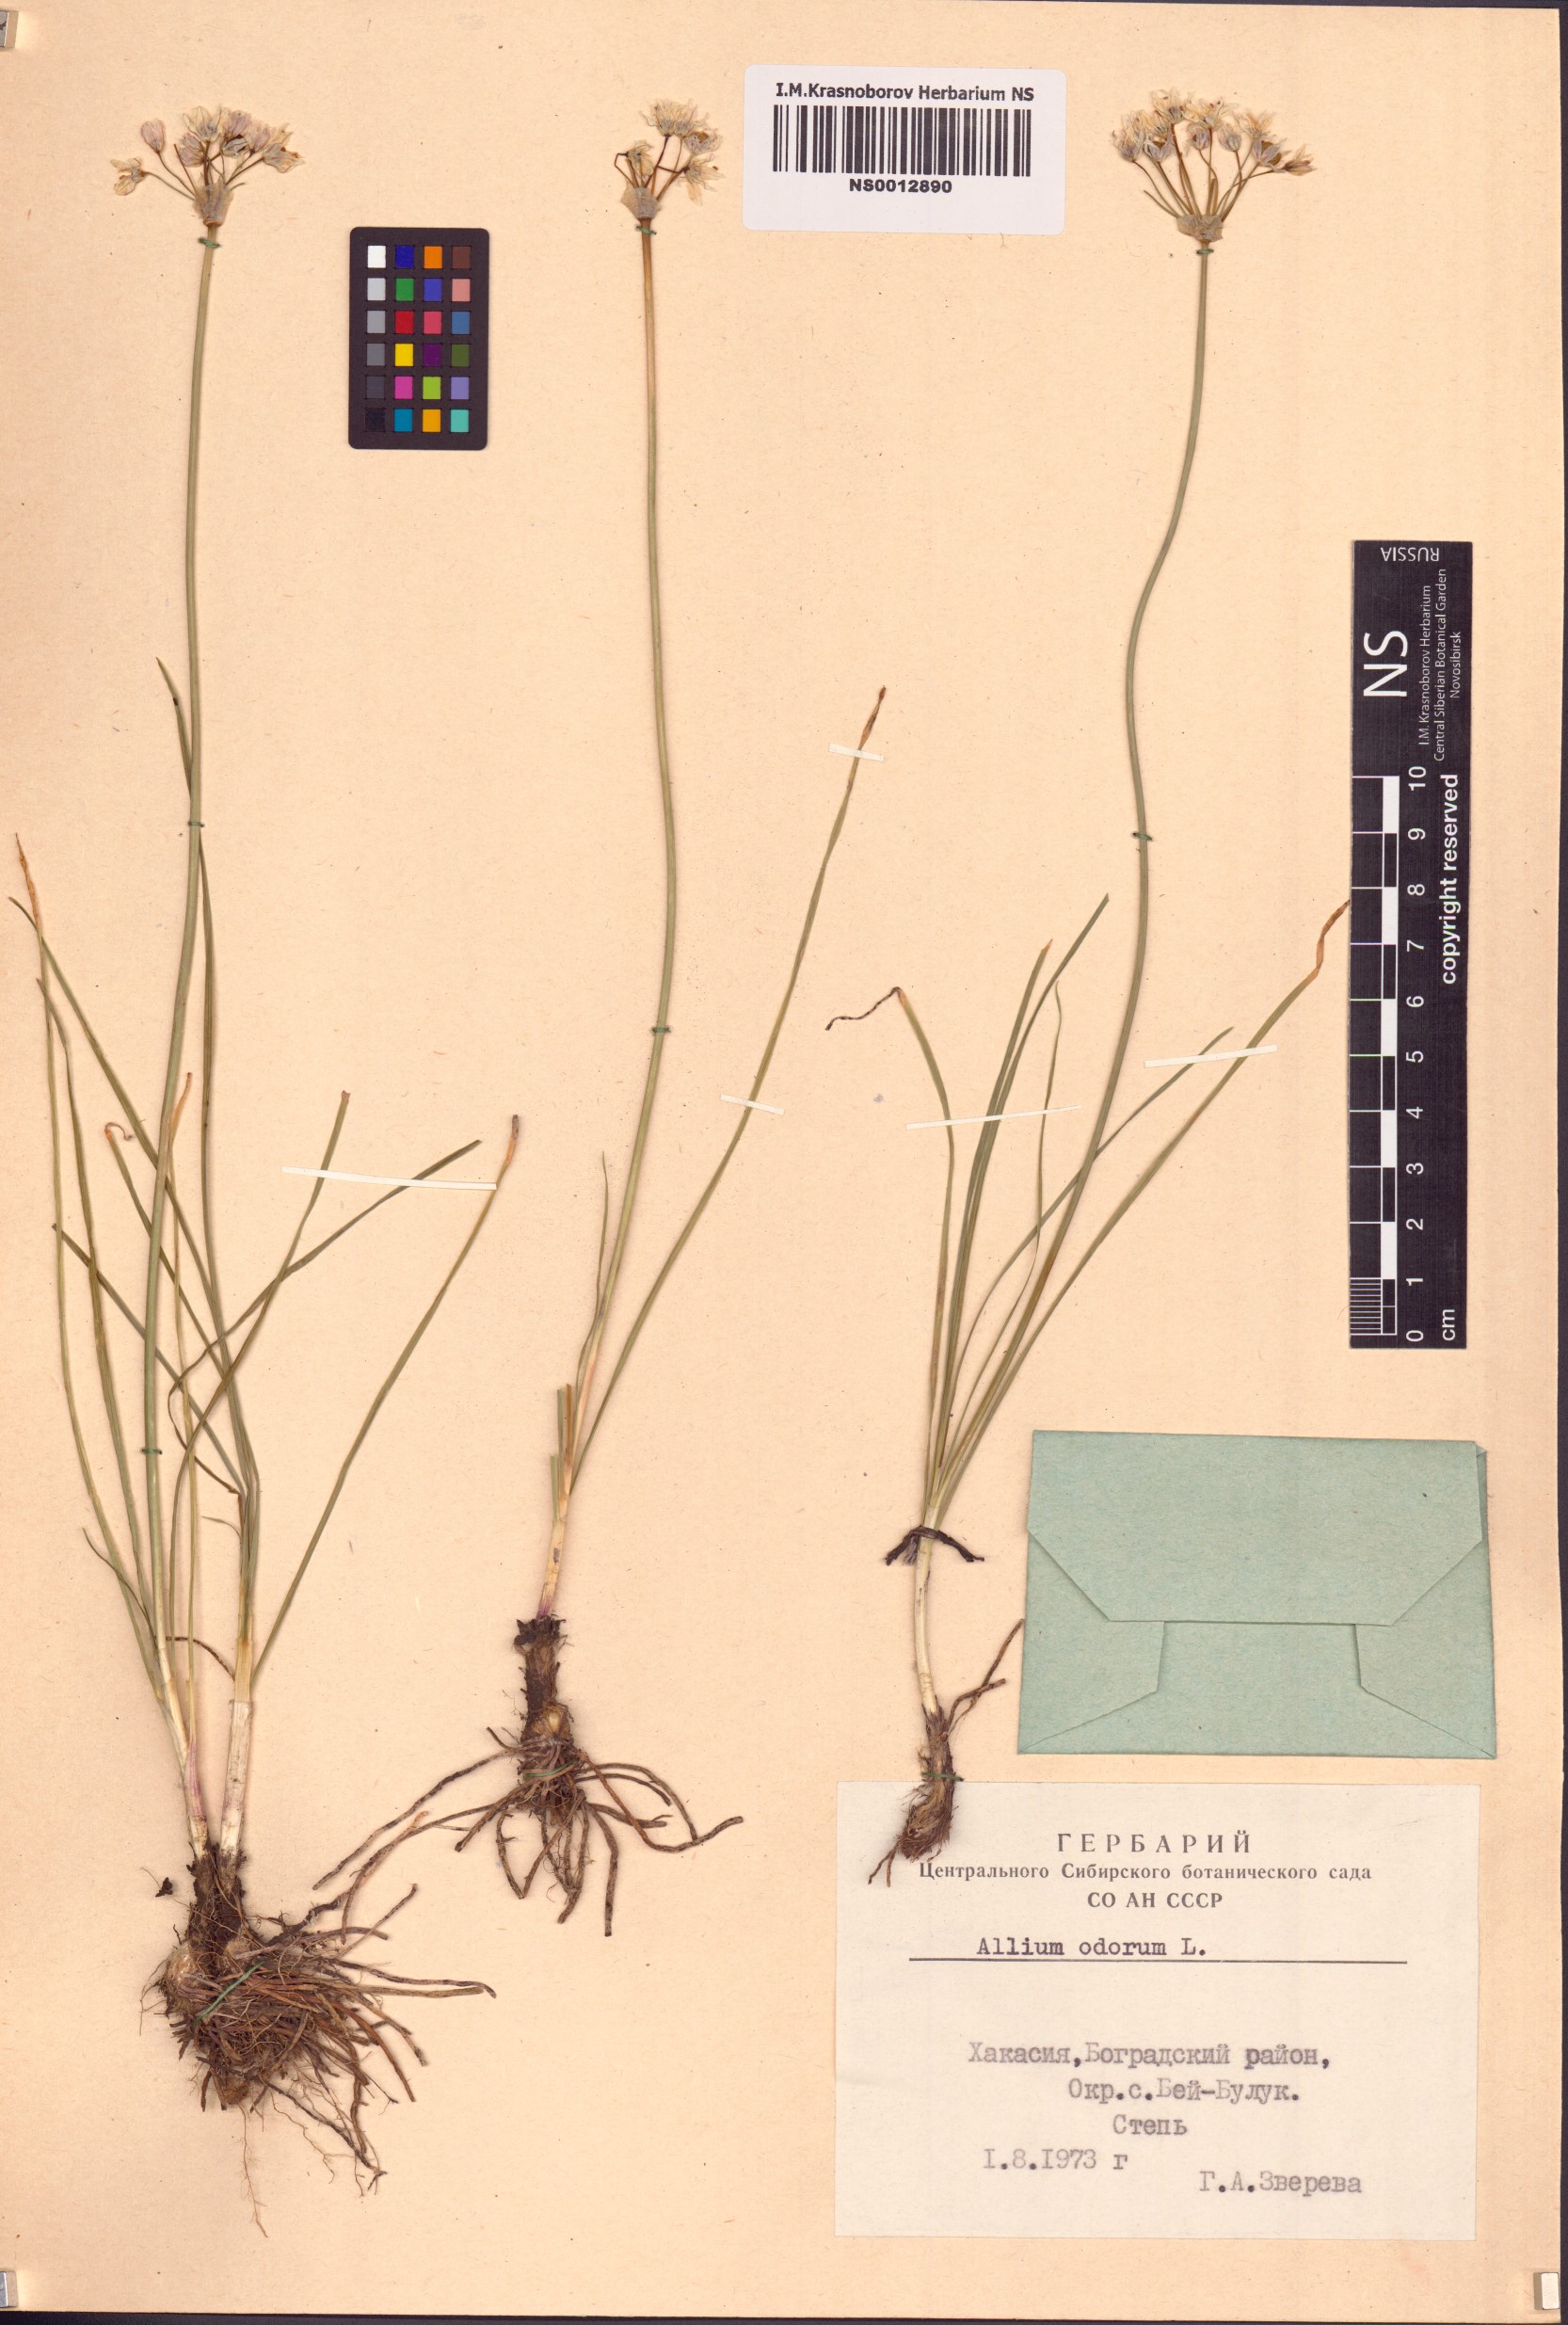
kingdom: Plantae
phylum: Tracheophyta
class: Liliopsida
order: Asparagales
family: Amaryllidaceae
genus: Allium
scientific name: Allium ramosum
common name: Fragrant garlic
